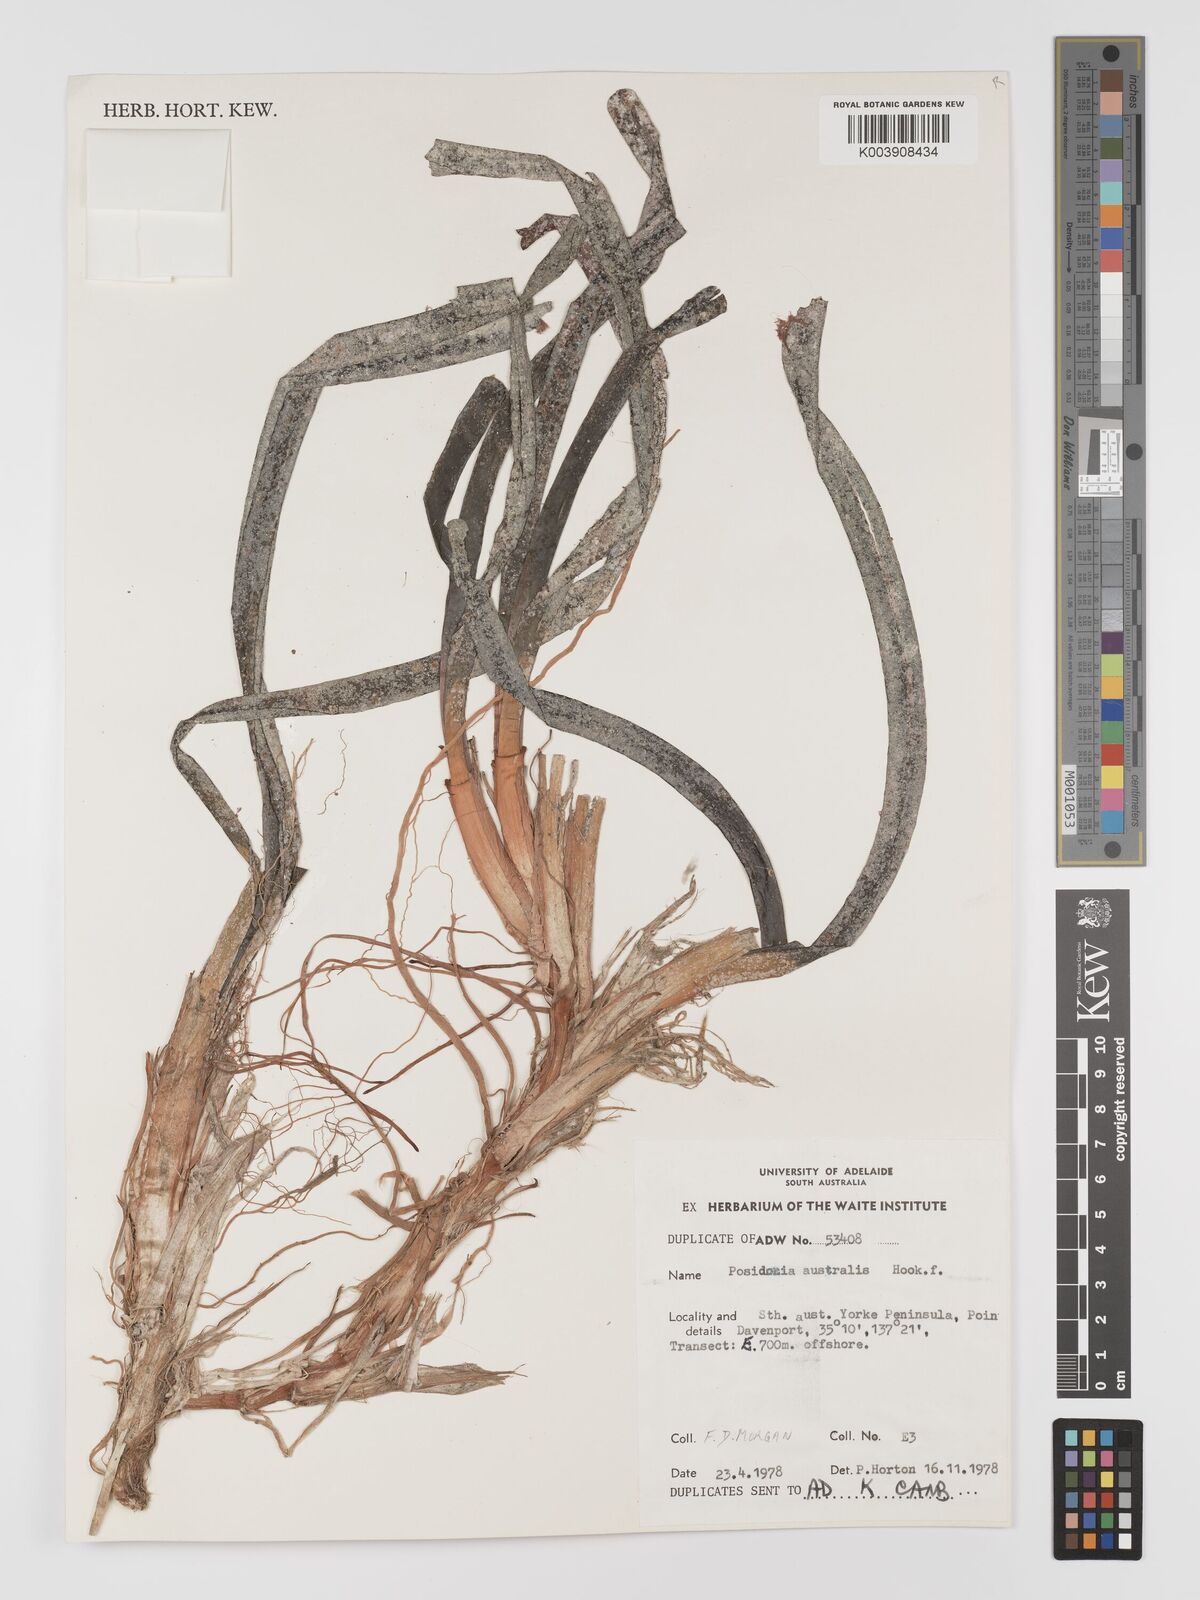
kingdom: Plantae
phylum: Tracheophyta
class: Liliopsida
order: Alismatales
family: Posidoniaceae
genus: Posidonia
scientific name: Posidonia australis
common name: Species code: pa
